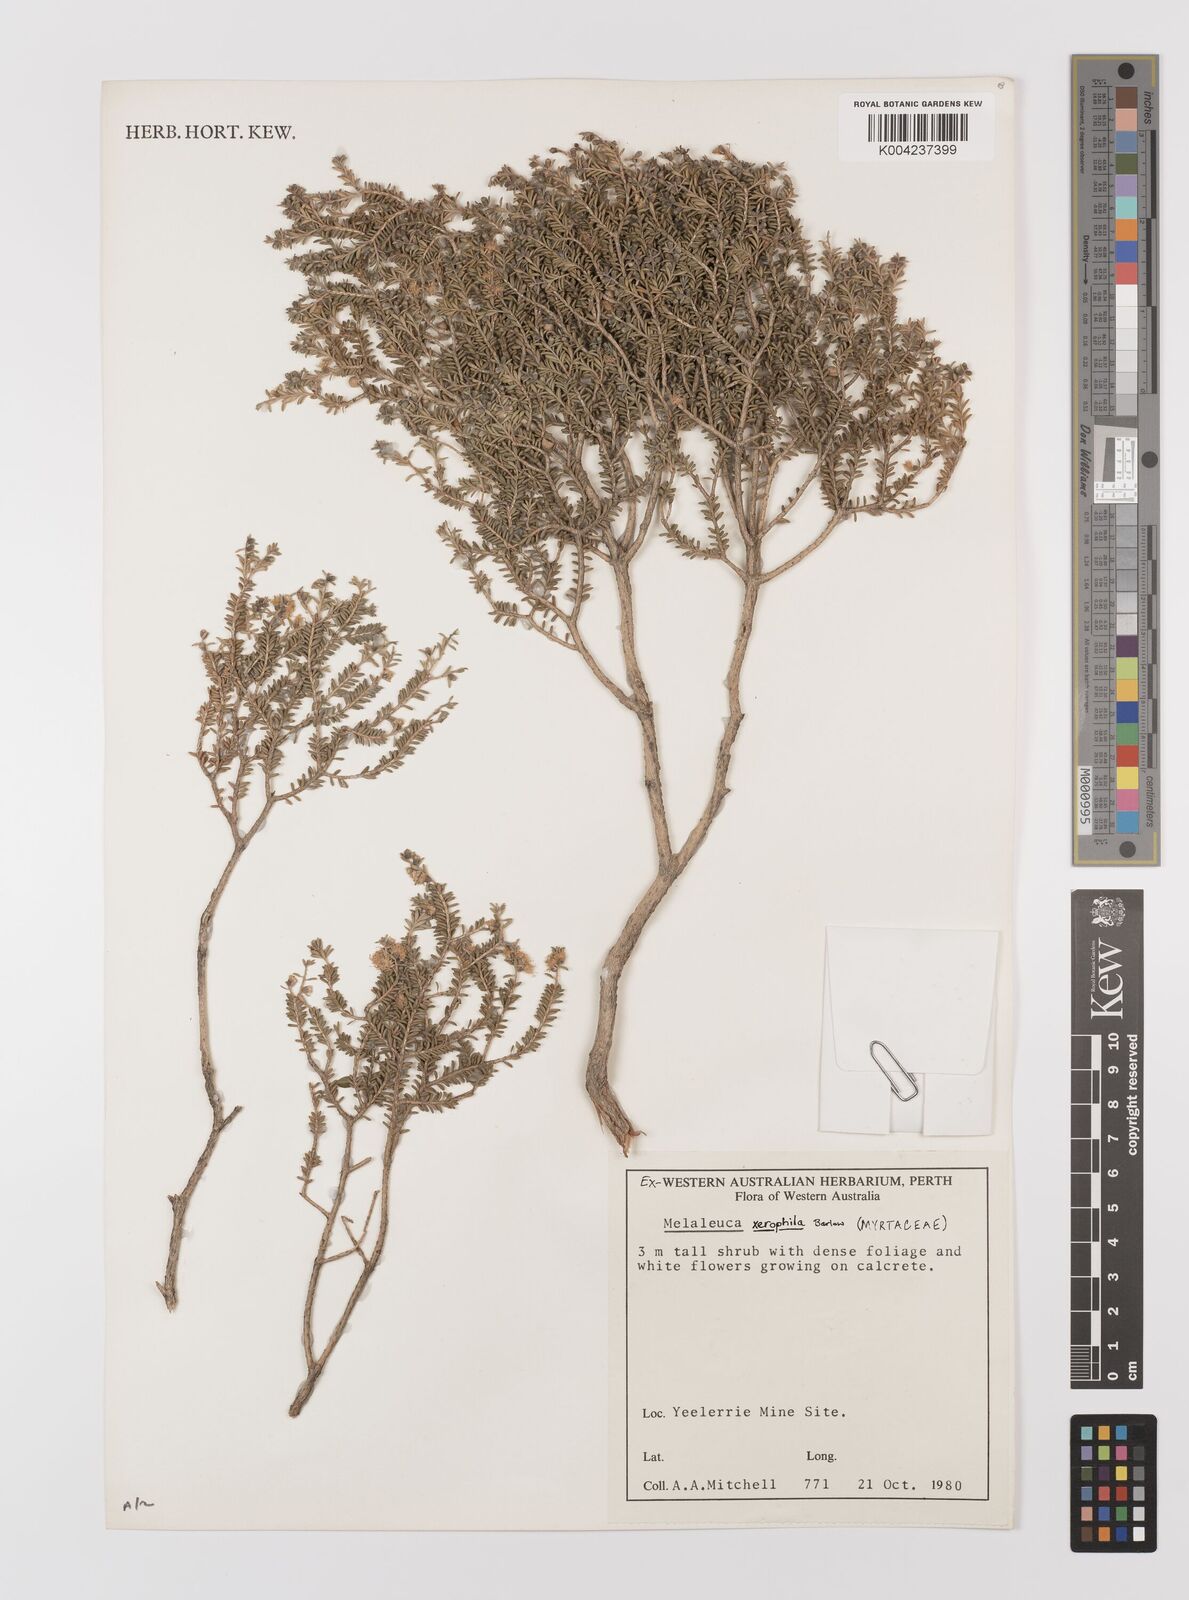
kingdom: Plantae
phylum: Tracheophyta
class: Magnoliopsida
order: Myrtales
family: Myrtaceae
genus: Melaleuca
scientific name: Melaleuca xerophila
